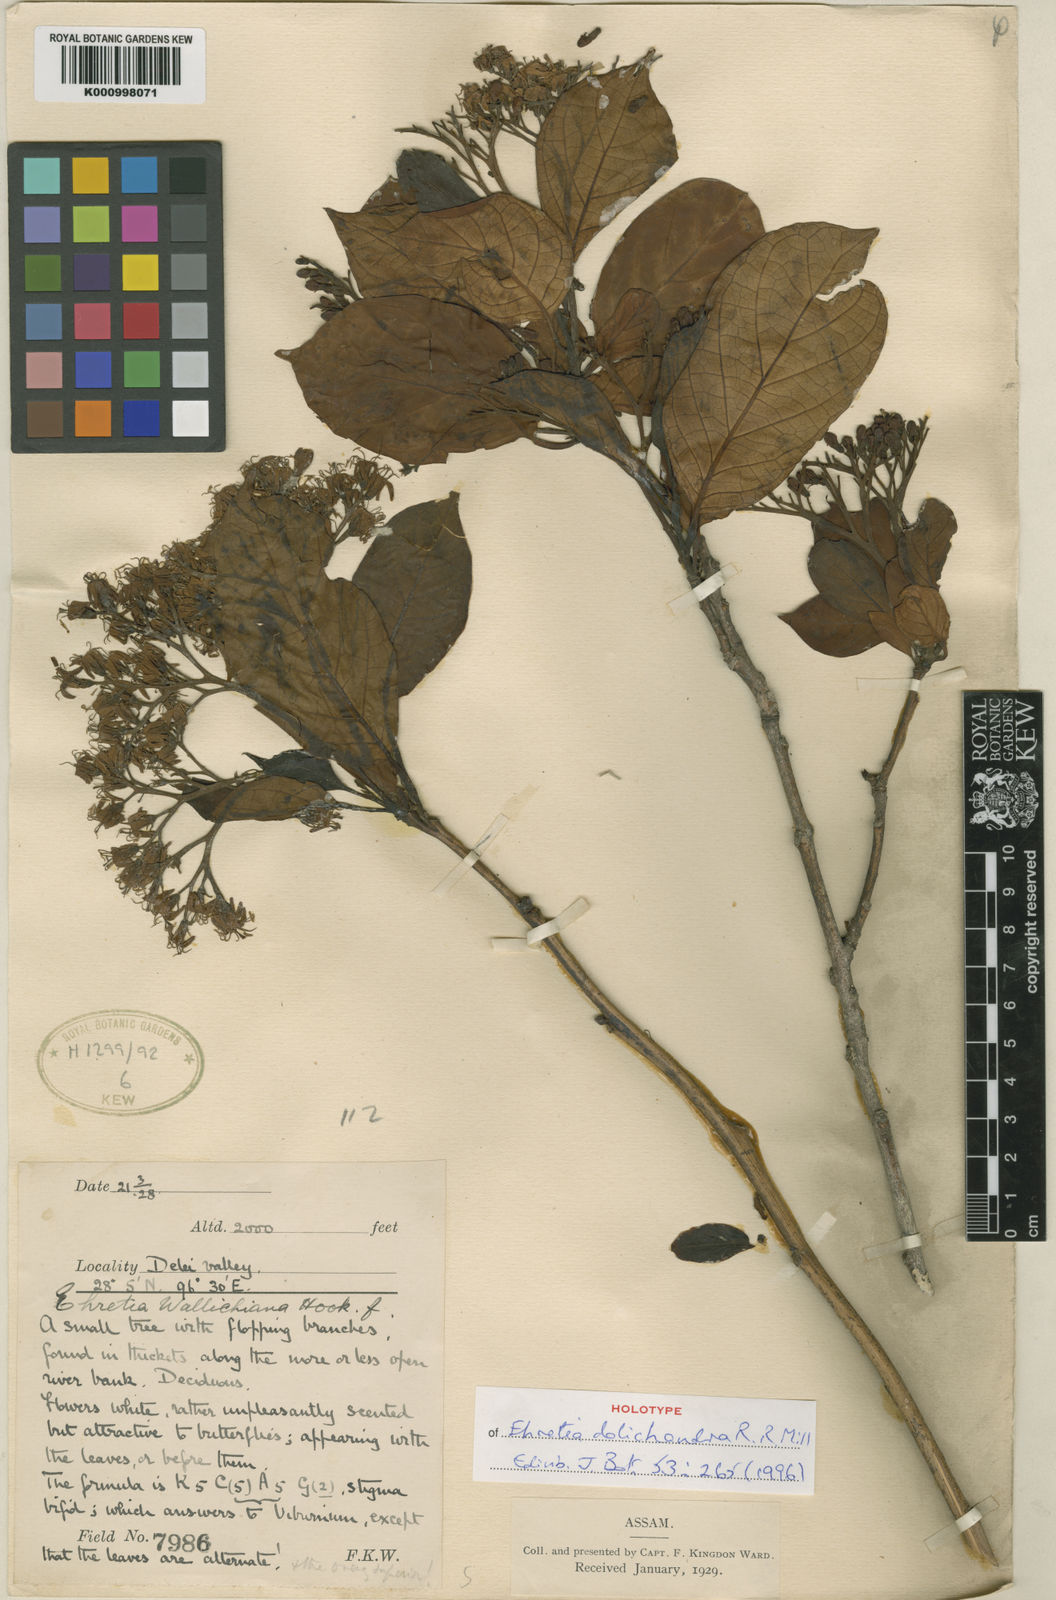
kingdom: Plantae
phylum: Tracheophyta
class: Magnoliopsida
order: Boraginales
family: Ehretiaceae
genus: Ehretia
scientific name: Ehretia dolichandra
